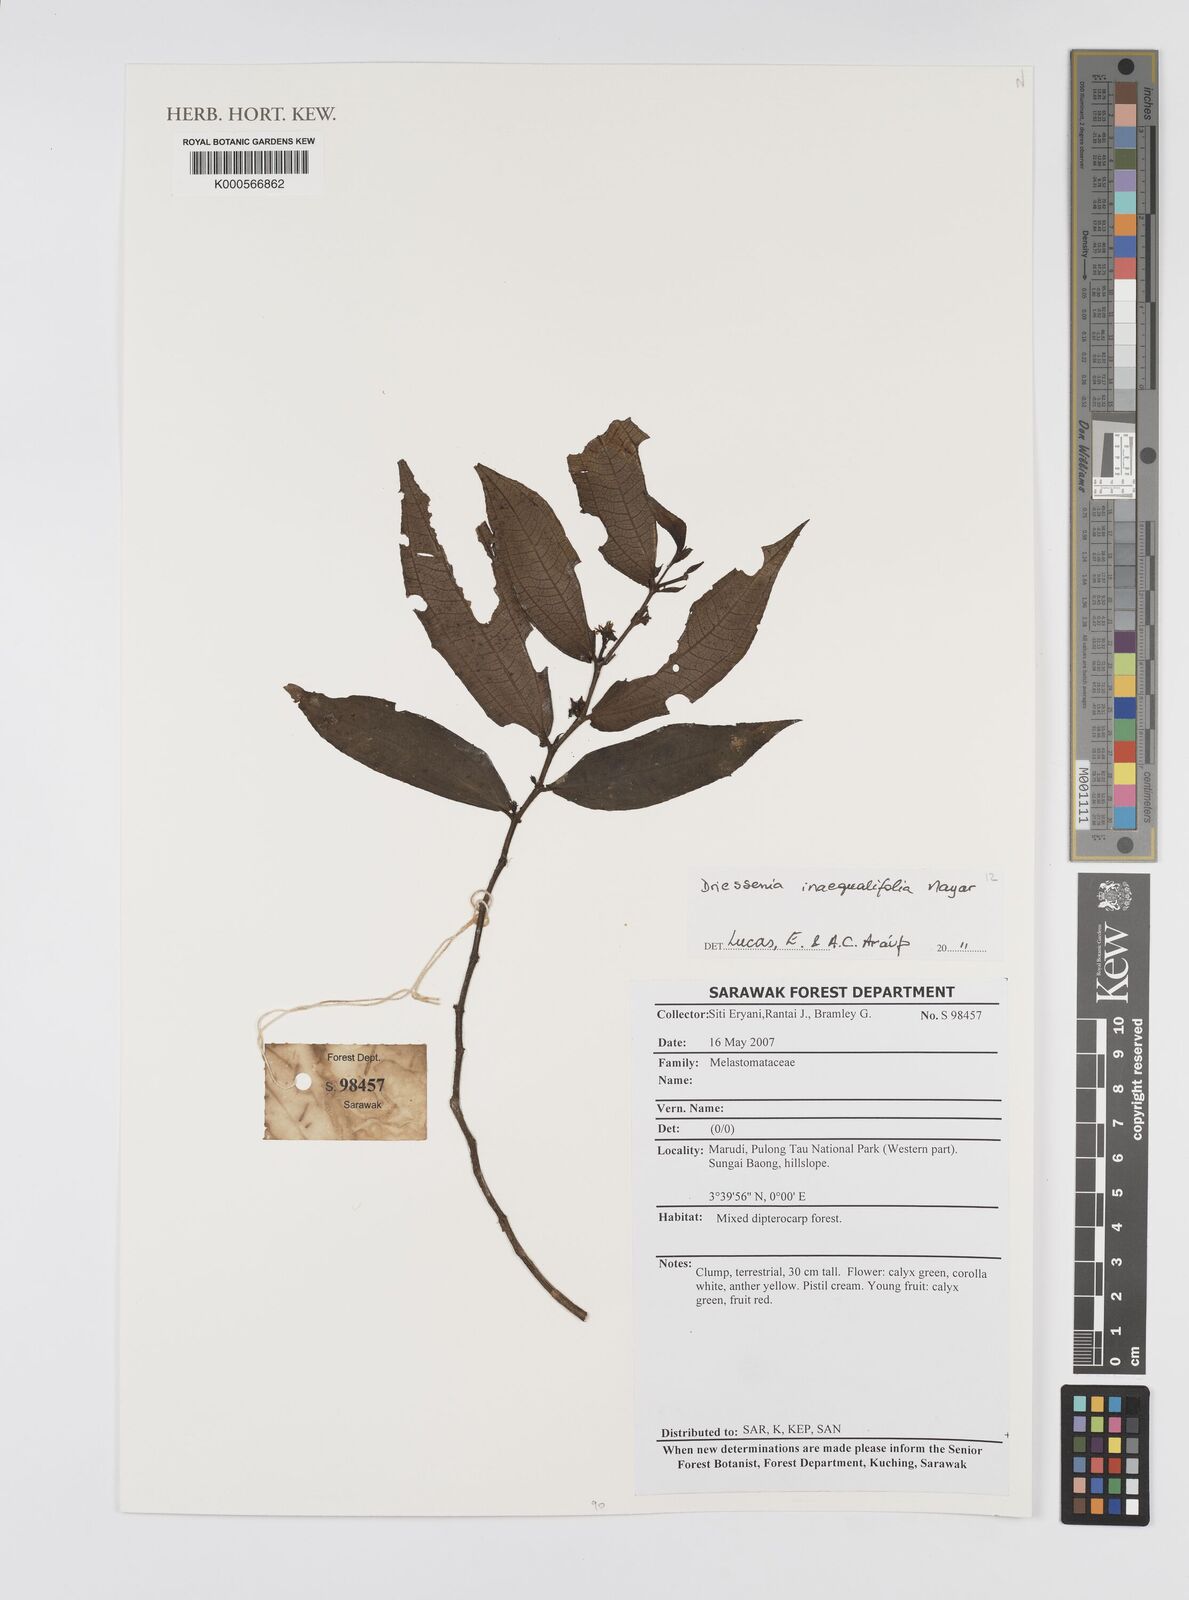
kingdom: Plantae
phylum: Tracheophyta
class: Magnoliopsida
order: Myrtales
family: Melastomataceae
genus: Driessenia
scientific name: Driessenia inaequalifolia
